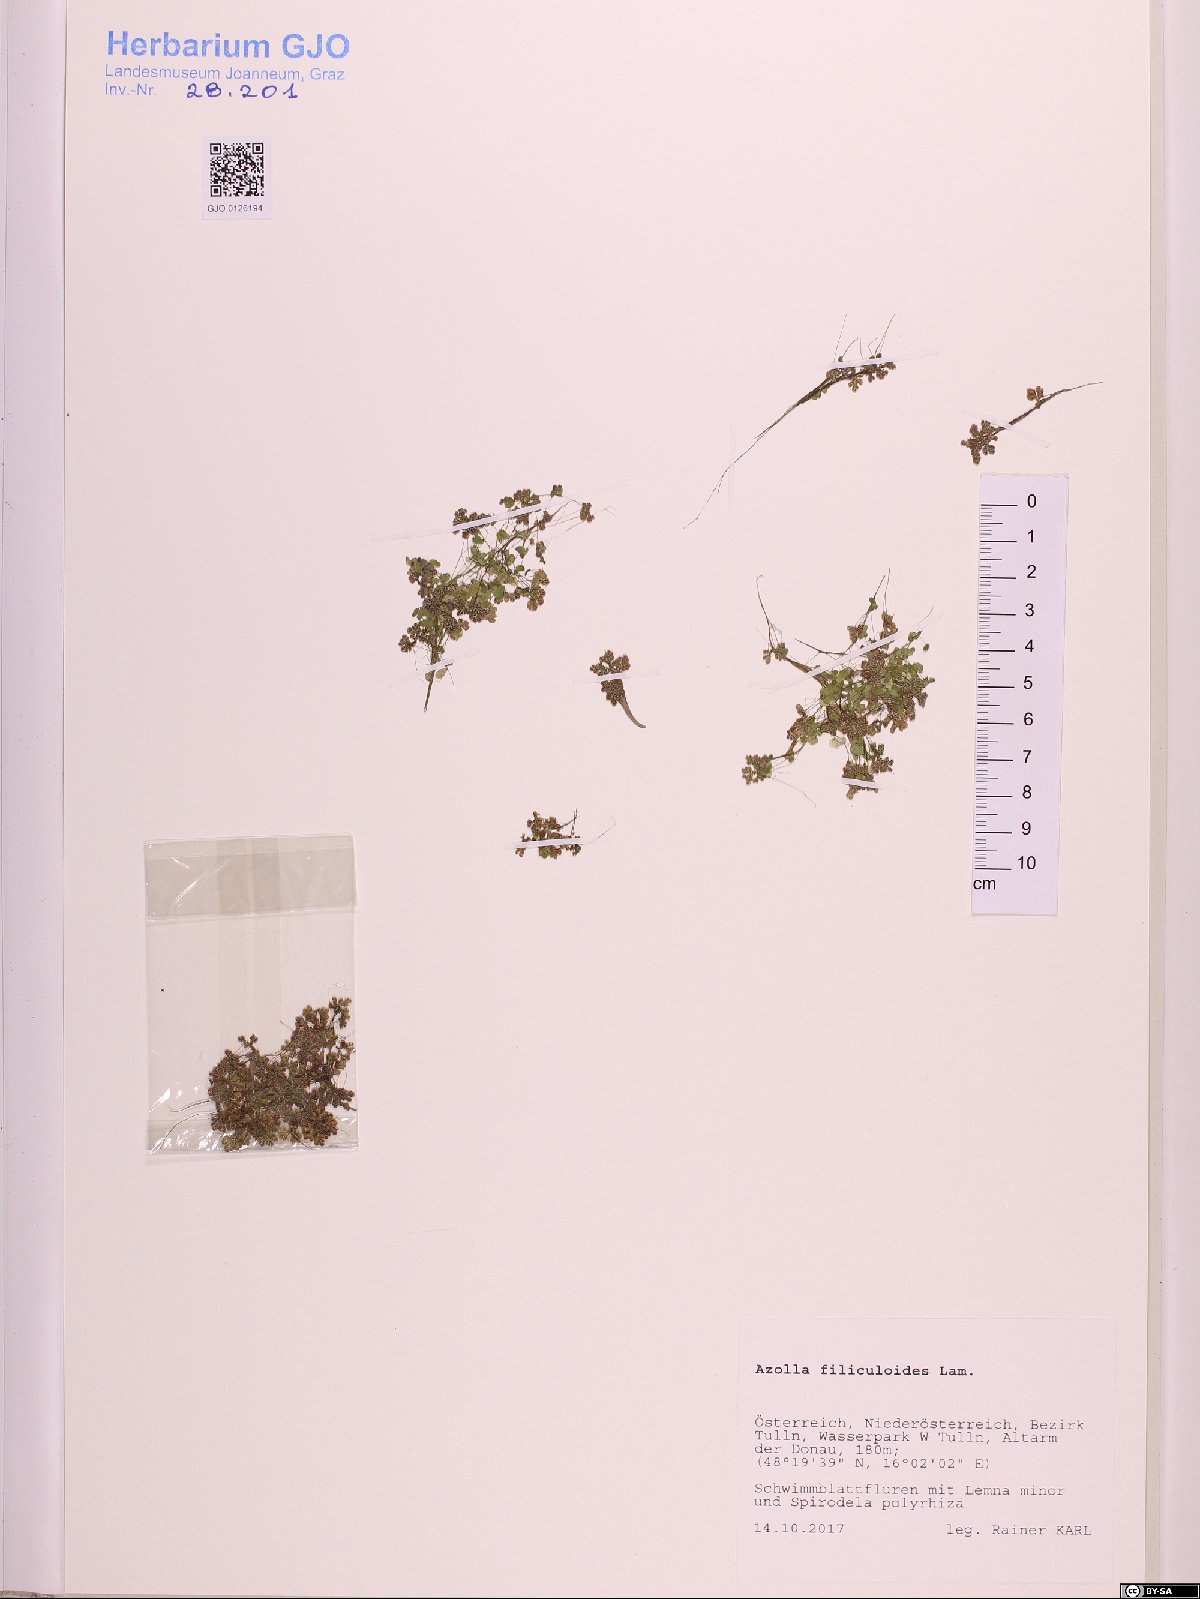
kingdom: Plantae
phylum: Tracheophyta
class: Polypodiopsida
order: Salviniales
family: Salviniaceae
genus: Azolla
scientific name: Azolla filiculoides
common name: Water fern
